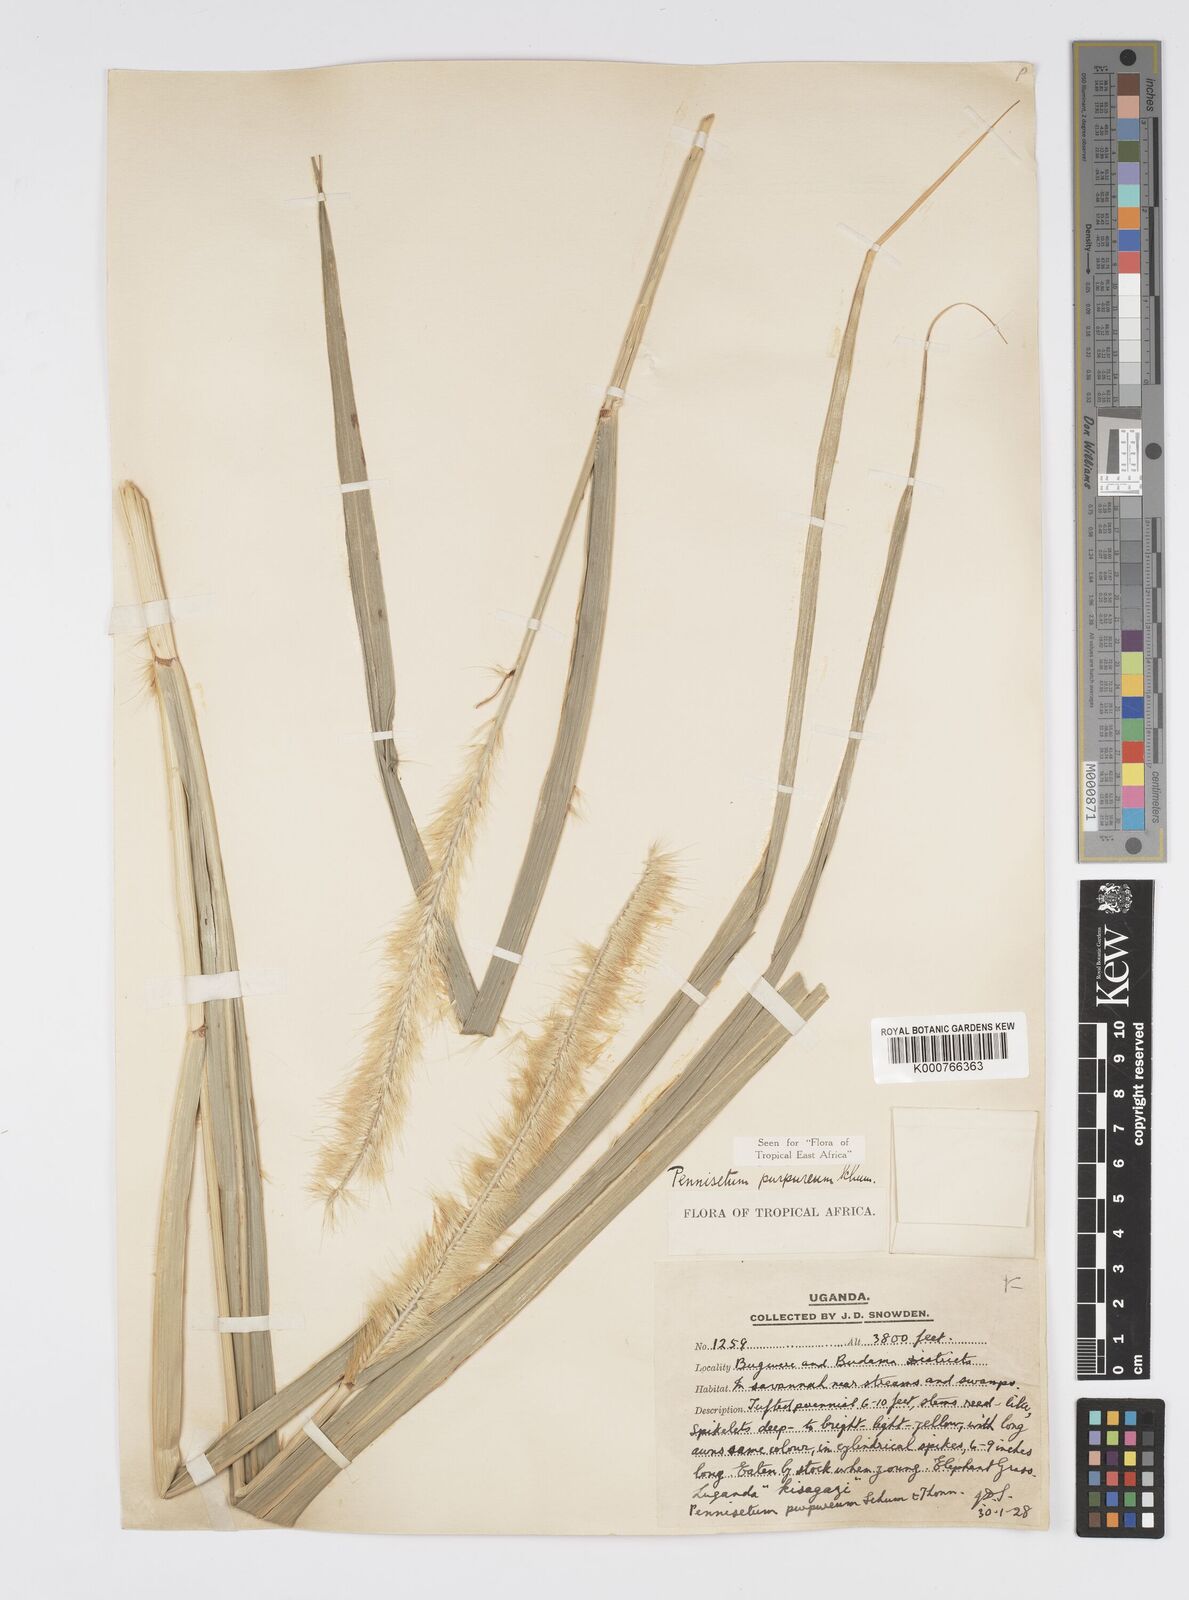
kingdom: Plantae
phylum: Tracheophyta
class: Liliopsida
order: Poales
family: Poaceae
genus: Cenchrus
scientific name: Cenchrus purpureus
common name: Elephant grass
